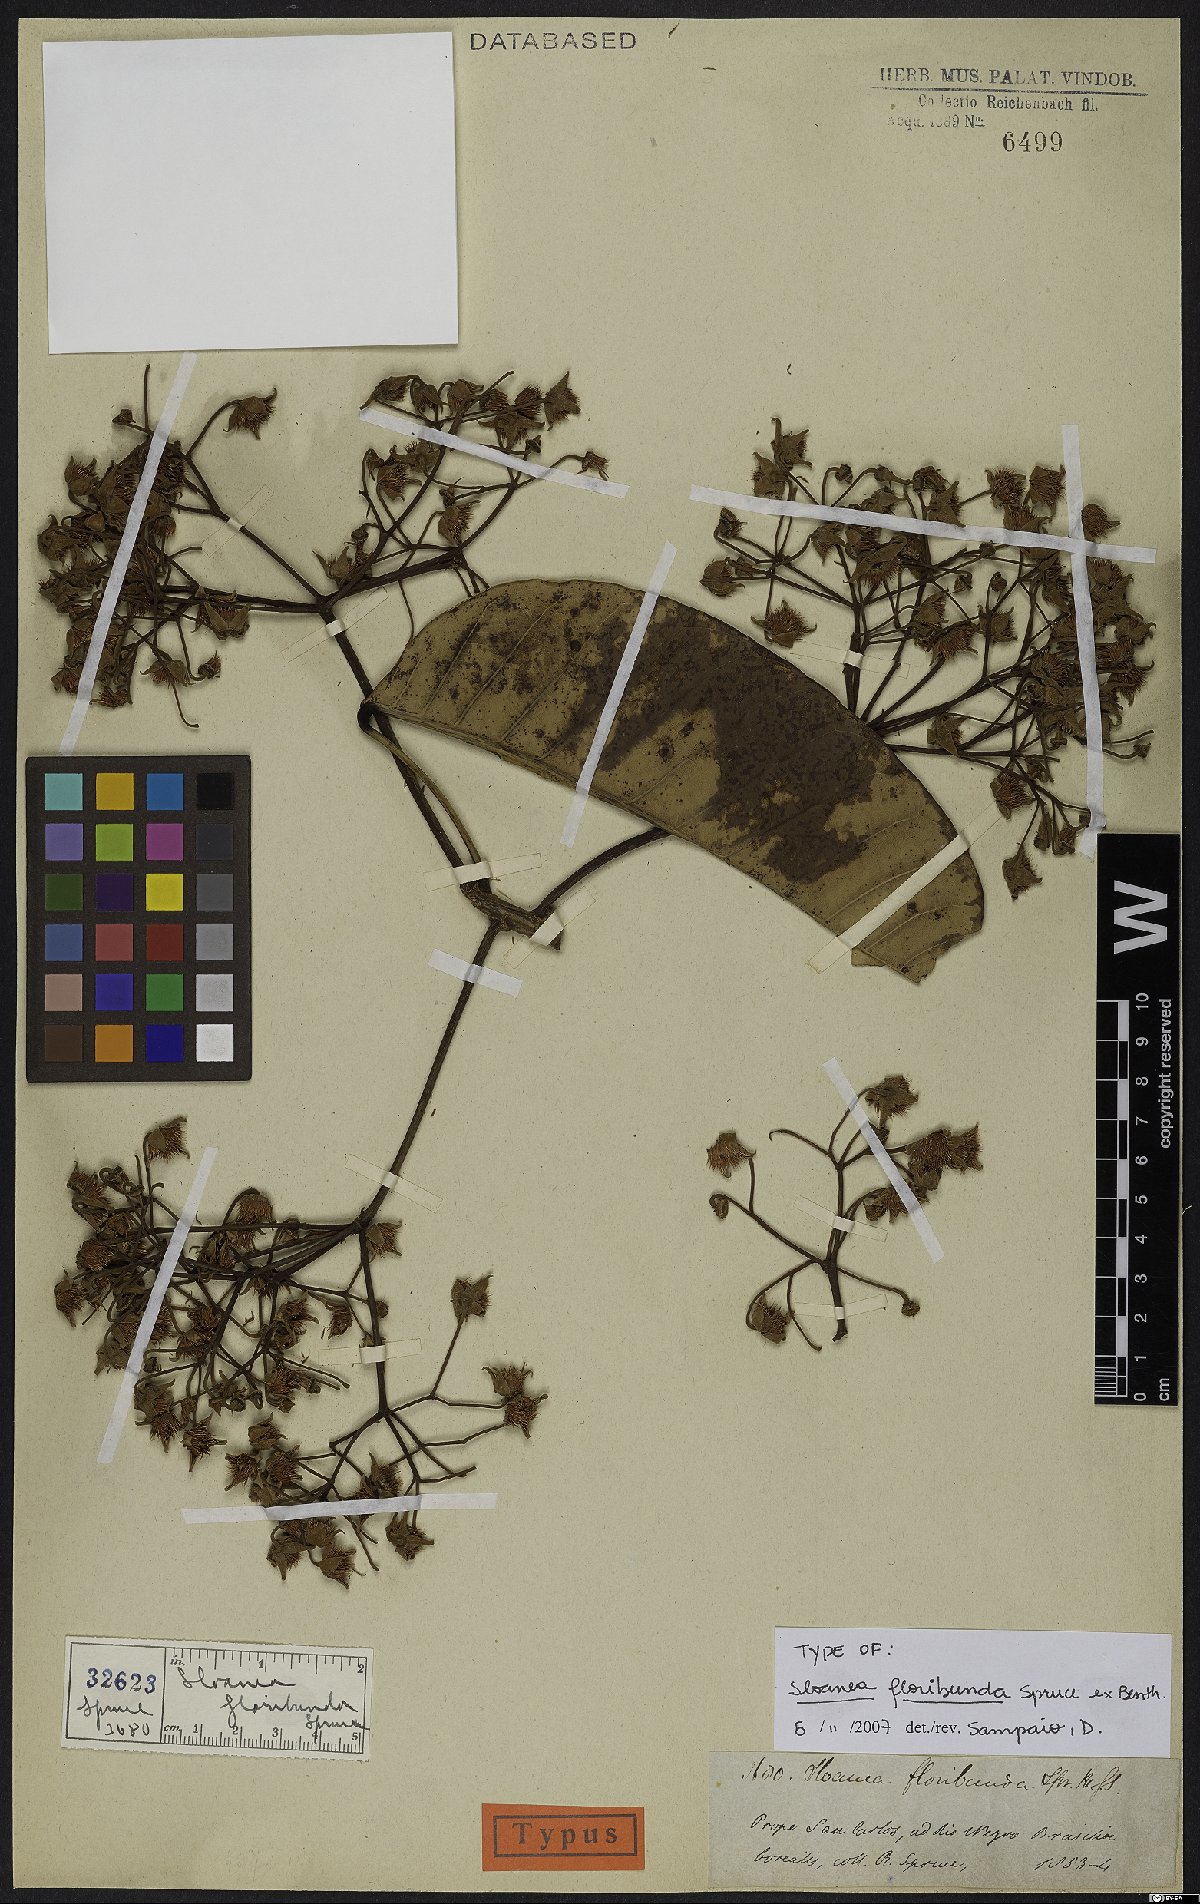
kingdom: Plantae
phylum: Tracheophyta
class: Magnoliopsida
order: Oxalidales
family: Elaeocarpaceae
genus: Sloanea
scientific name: Sloanea floribunda
